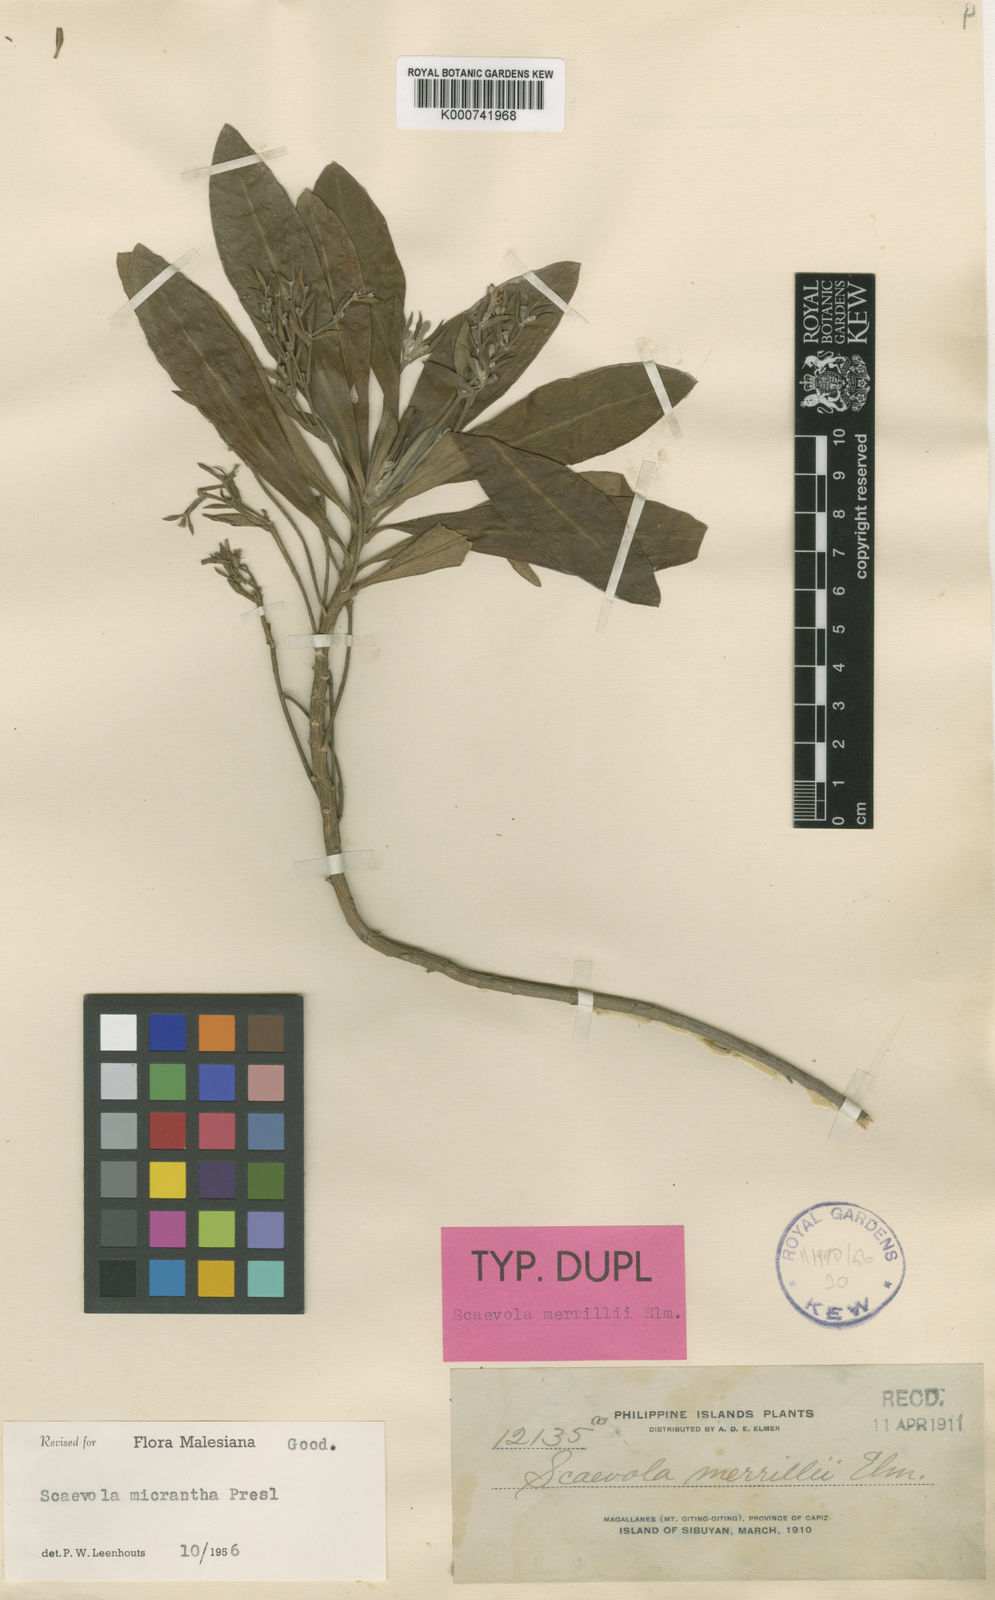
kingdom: Plantae
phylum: Tracheophyta
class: Magnoliopsida
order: Asterales
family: Goodeniaceae
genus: Scaevola
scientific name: Scaevola micrantha
